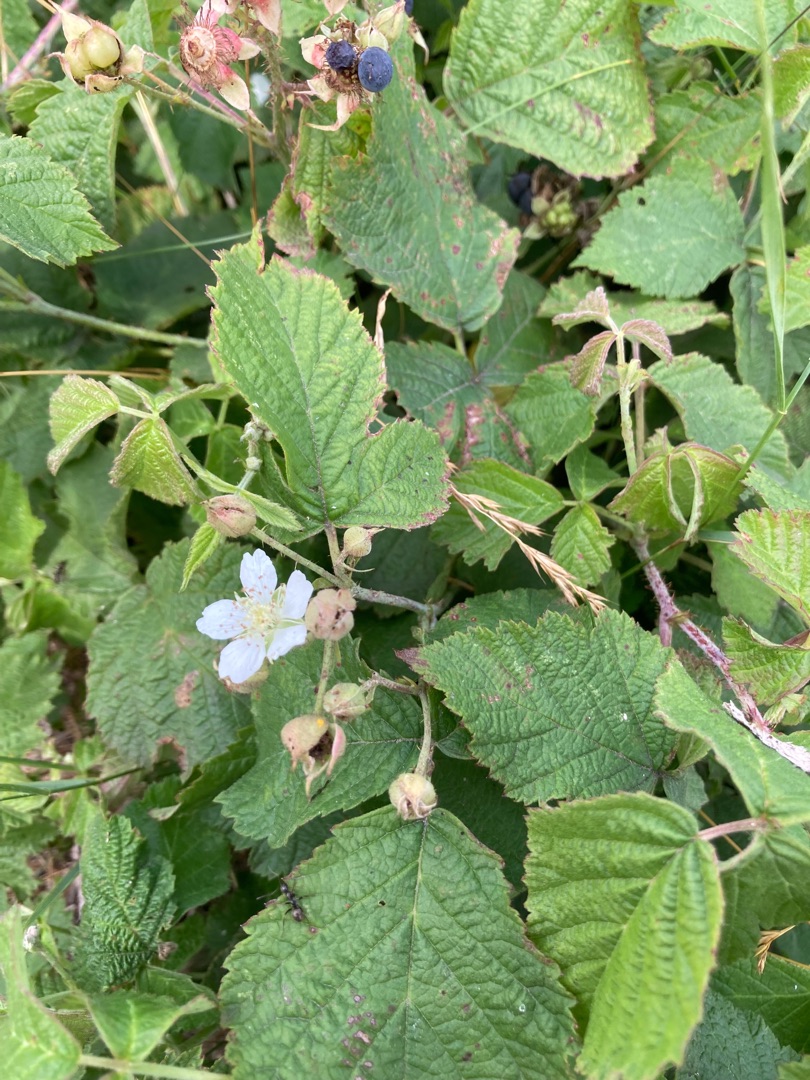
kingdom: Plantae
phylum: Tracheophyta
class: Magnoliopsida
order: Rosales
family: Rosaceae
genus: Rubus
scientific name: Rubus caesius
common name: Korbær
